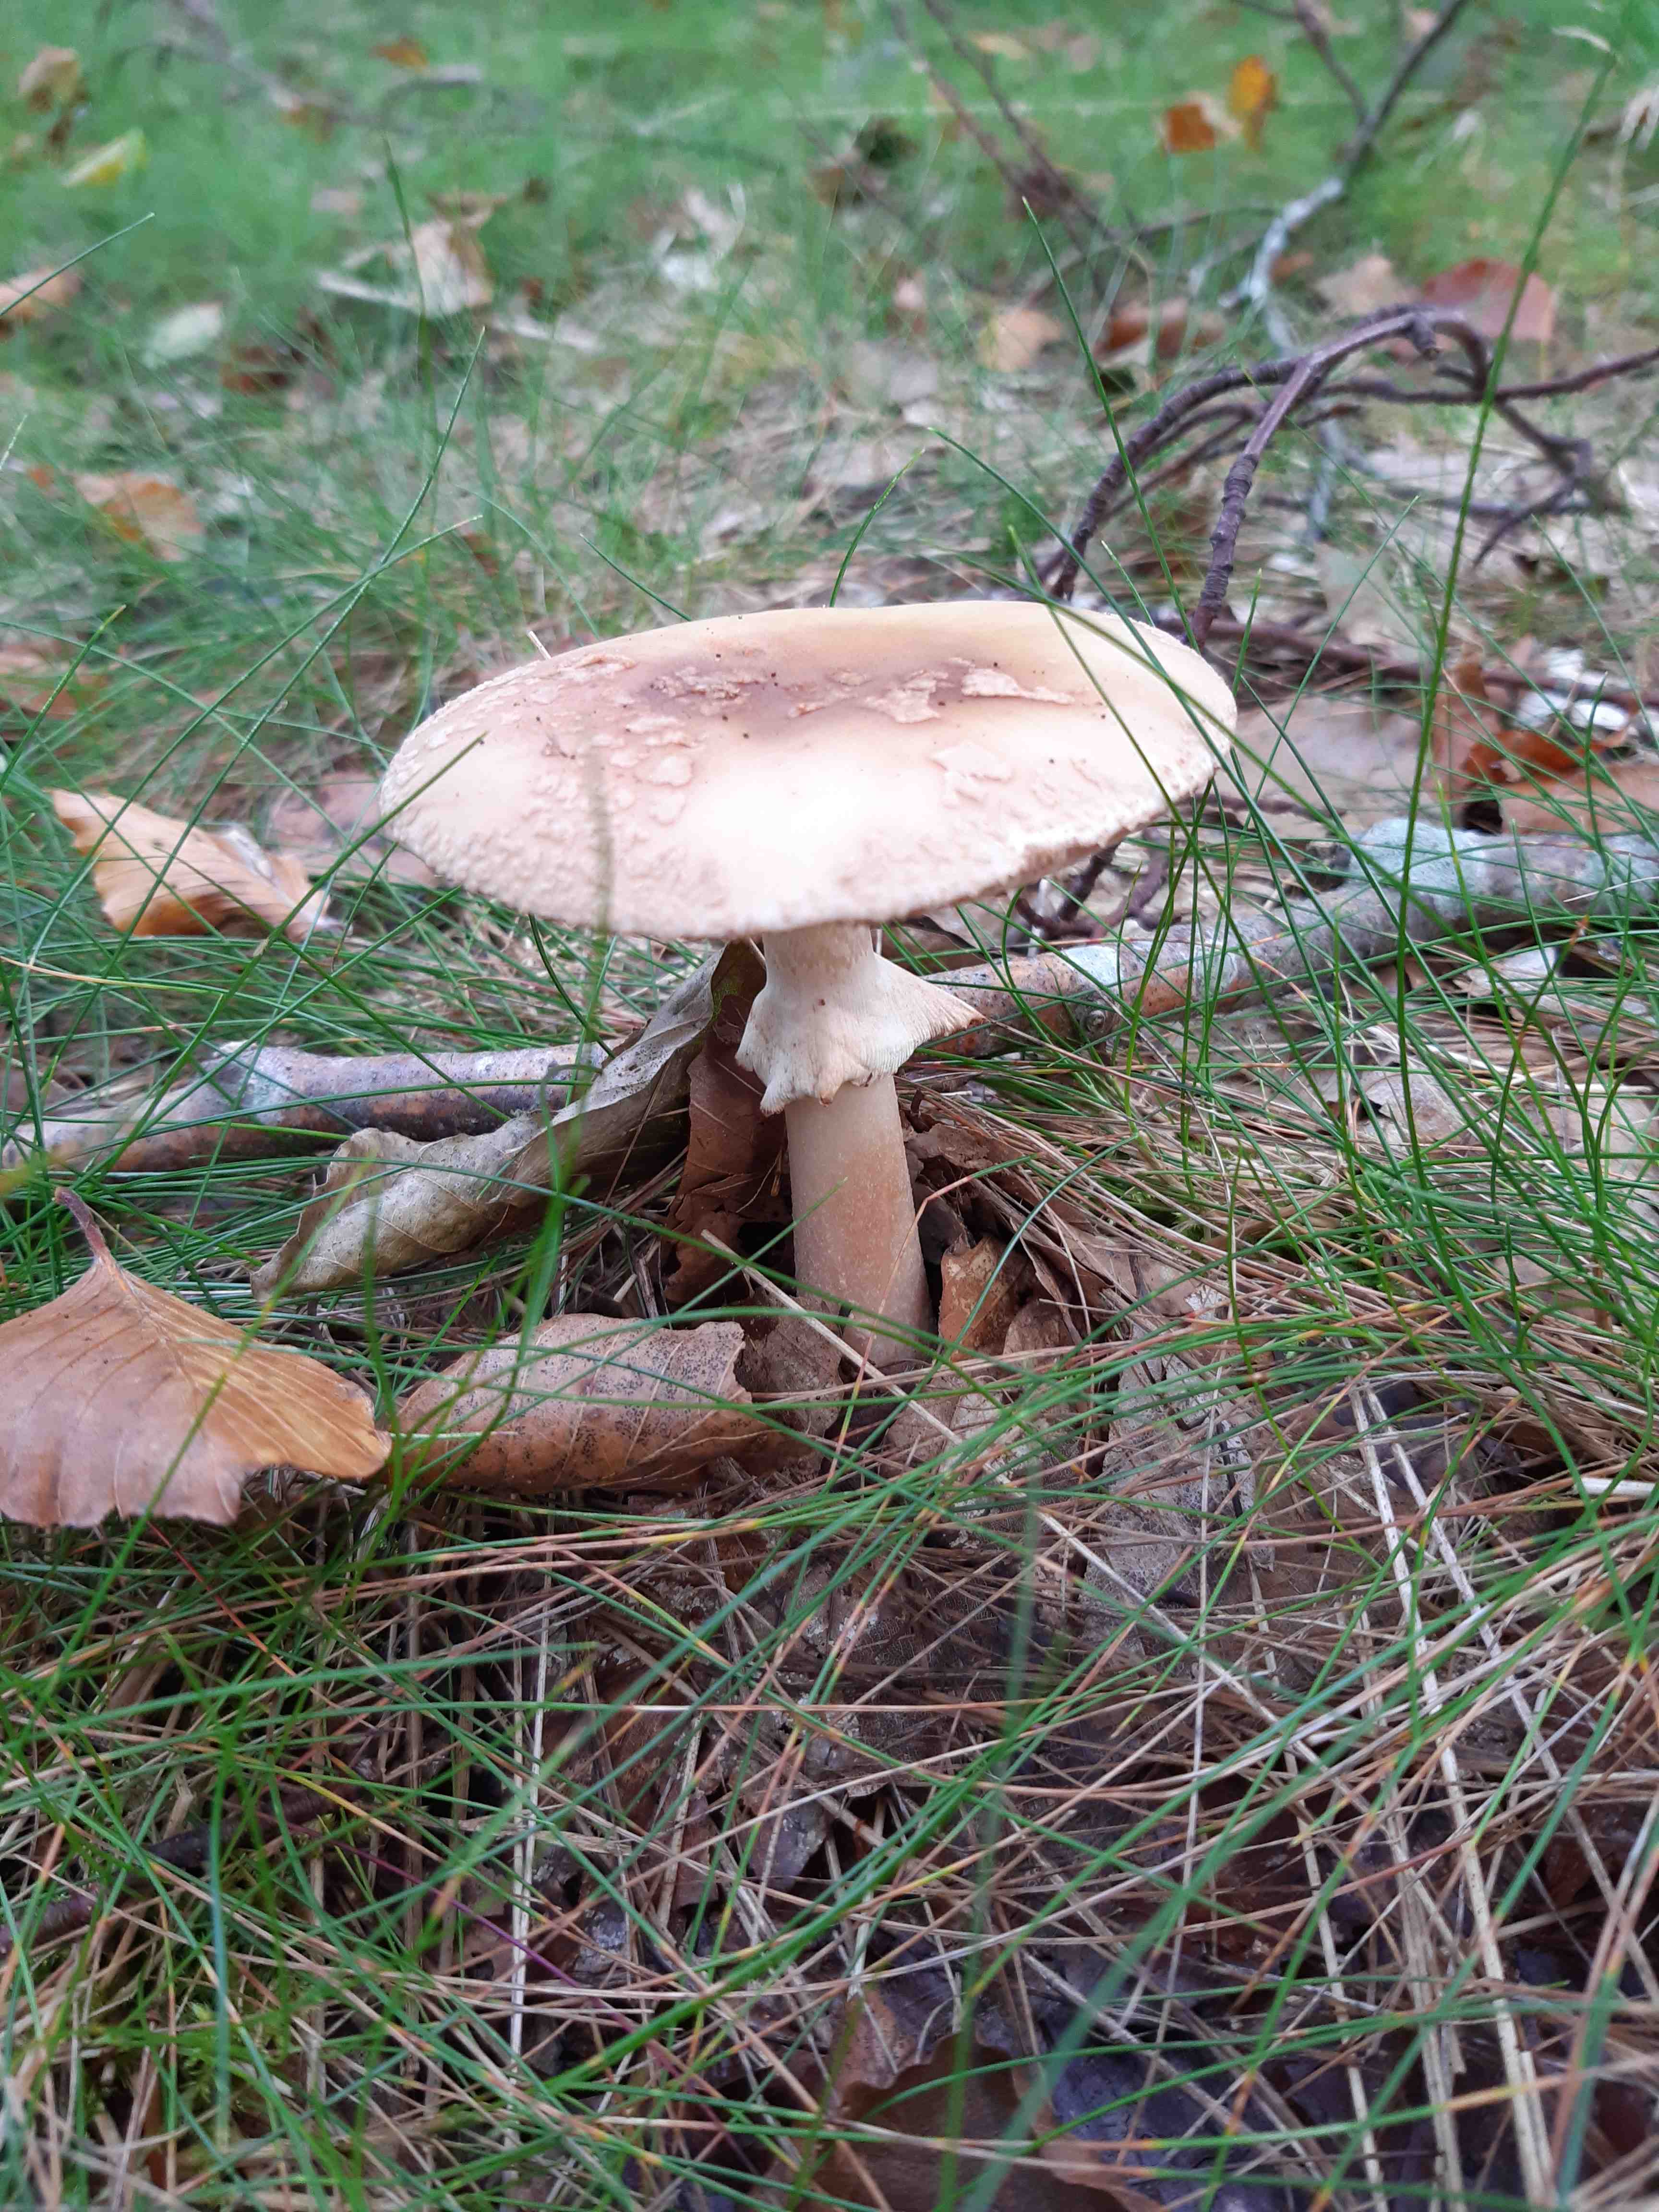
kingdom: Fungi
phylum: Basidiomycota
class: Agaricomycetes
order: Agaricales
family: Amanitaceae
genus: Amanita
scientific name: Amanita rubescens
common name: rødmende fluesvamp
